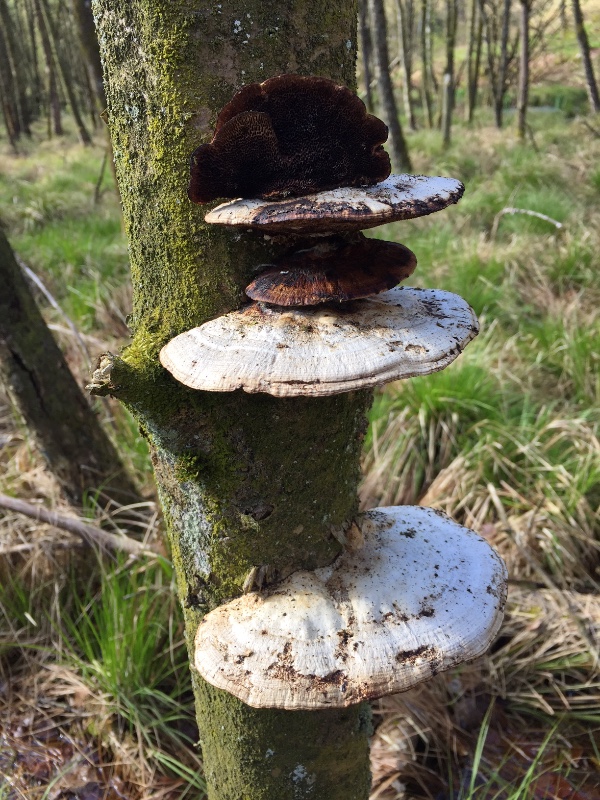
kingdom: Fungi
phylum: Basidiomycota
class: Agaricomycetes
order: Polyporales
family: Polyporaceae
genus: Daedaleopsis
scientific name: Daedaleopsis confragosa
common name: rødmende læderporesvamp
